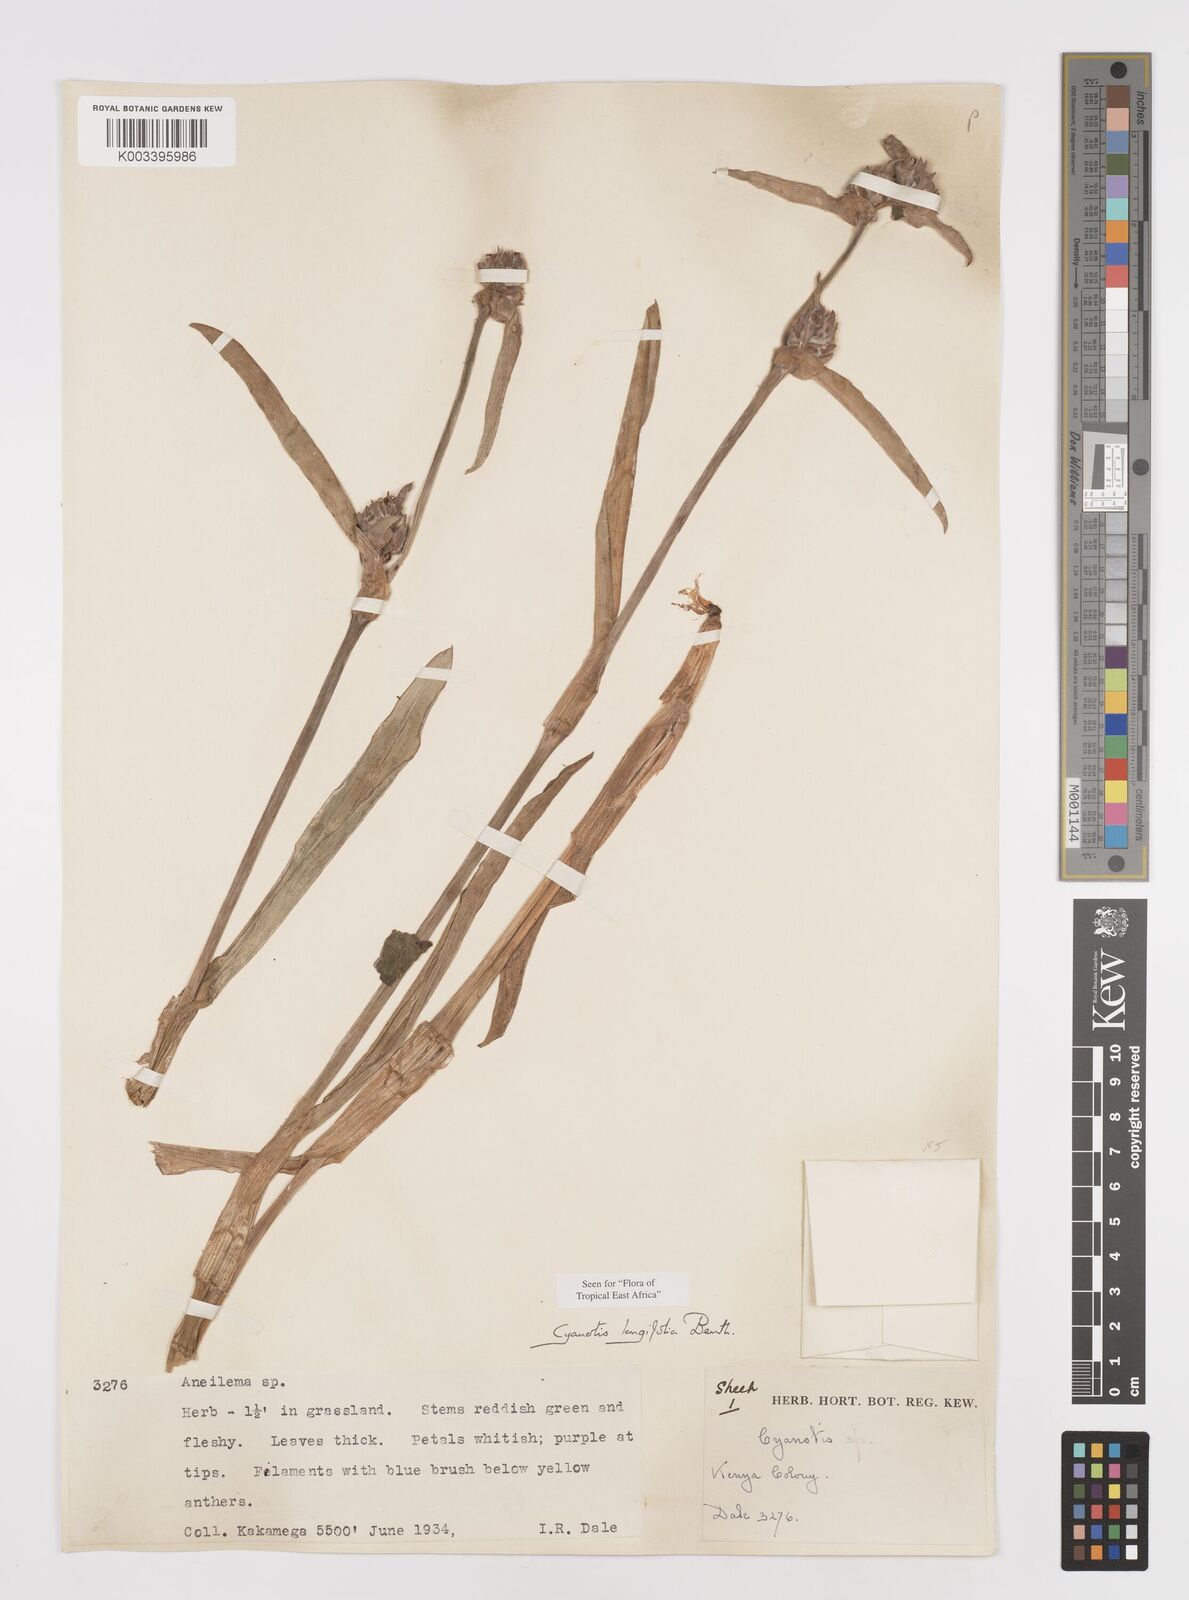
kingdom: Plantae
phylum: Tracheophyta
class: Liliopsida
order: Commelinales
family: Commelinaceae
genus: Cyanotis
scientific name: Cyanotis longifolia
